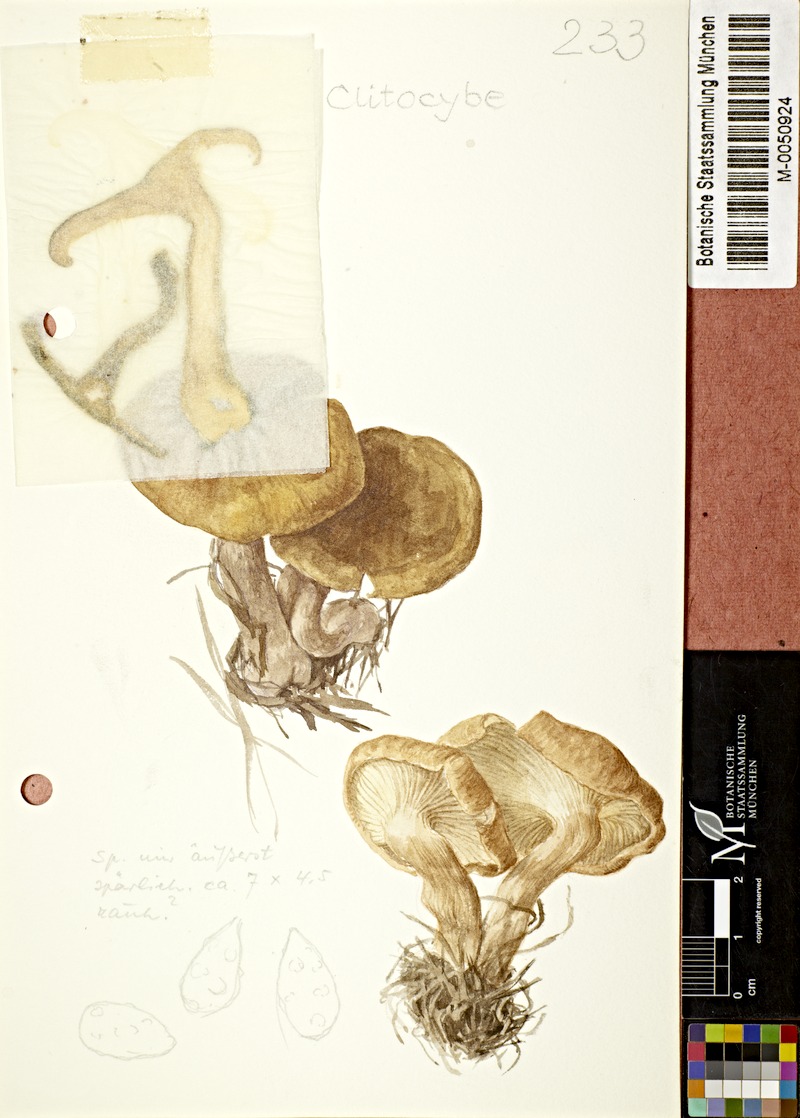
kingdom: Fungi
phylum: Basidiomycota
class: Agaricomycetes
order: Agaricales
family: Tricholomataceae
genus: Clitocybe
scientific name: Clitocybe
